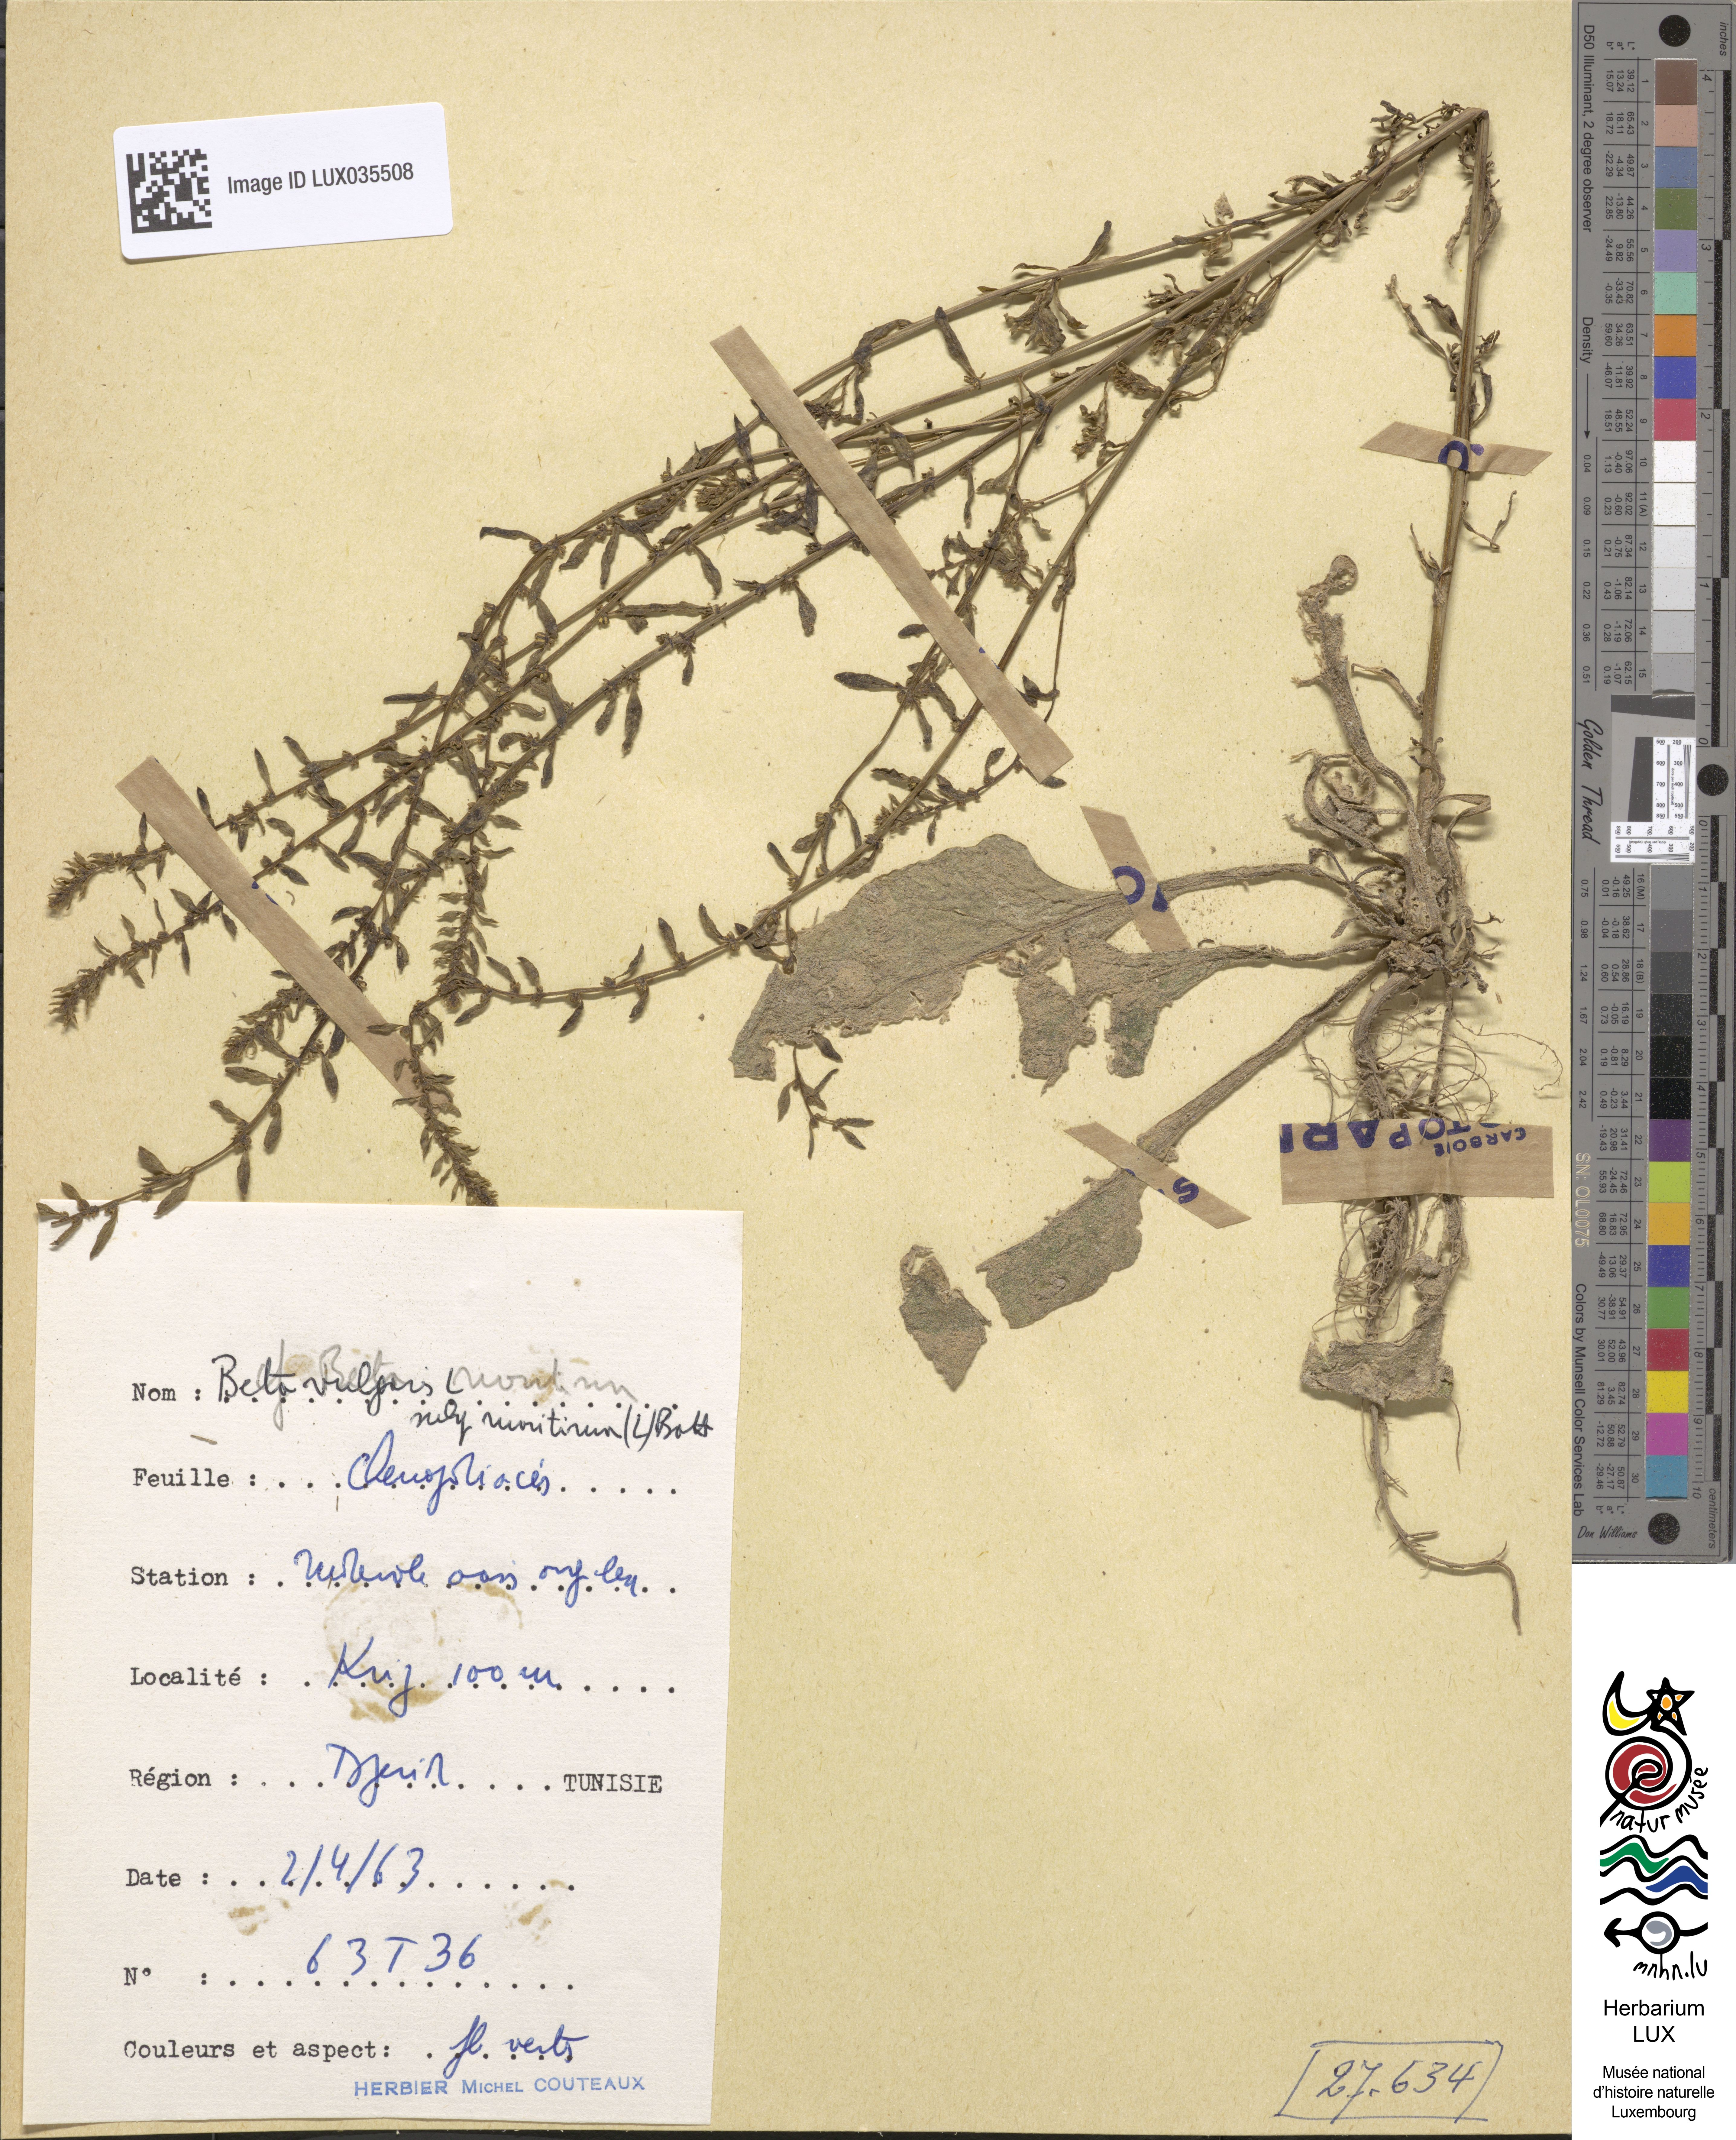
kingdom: Plantae
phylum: Tracheophyta
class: Magnoliopsida
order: Caryophyllales
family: Amaranthaceae
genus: Beta
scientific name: Beta maritima
